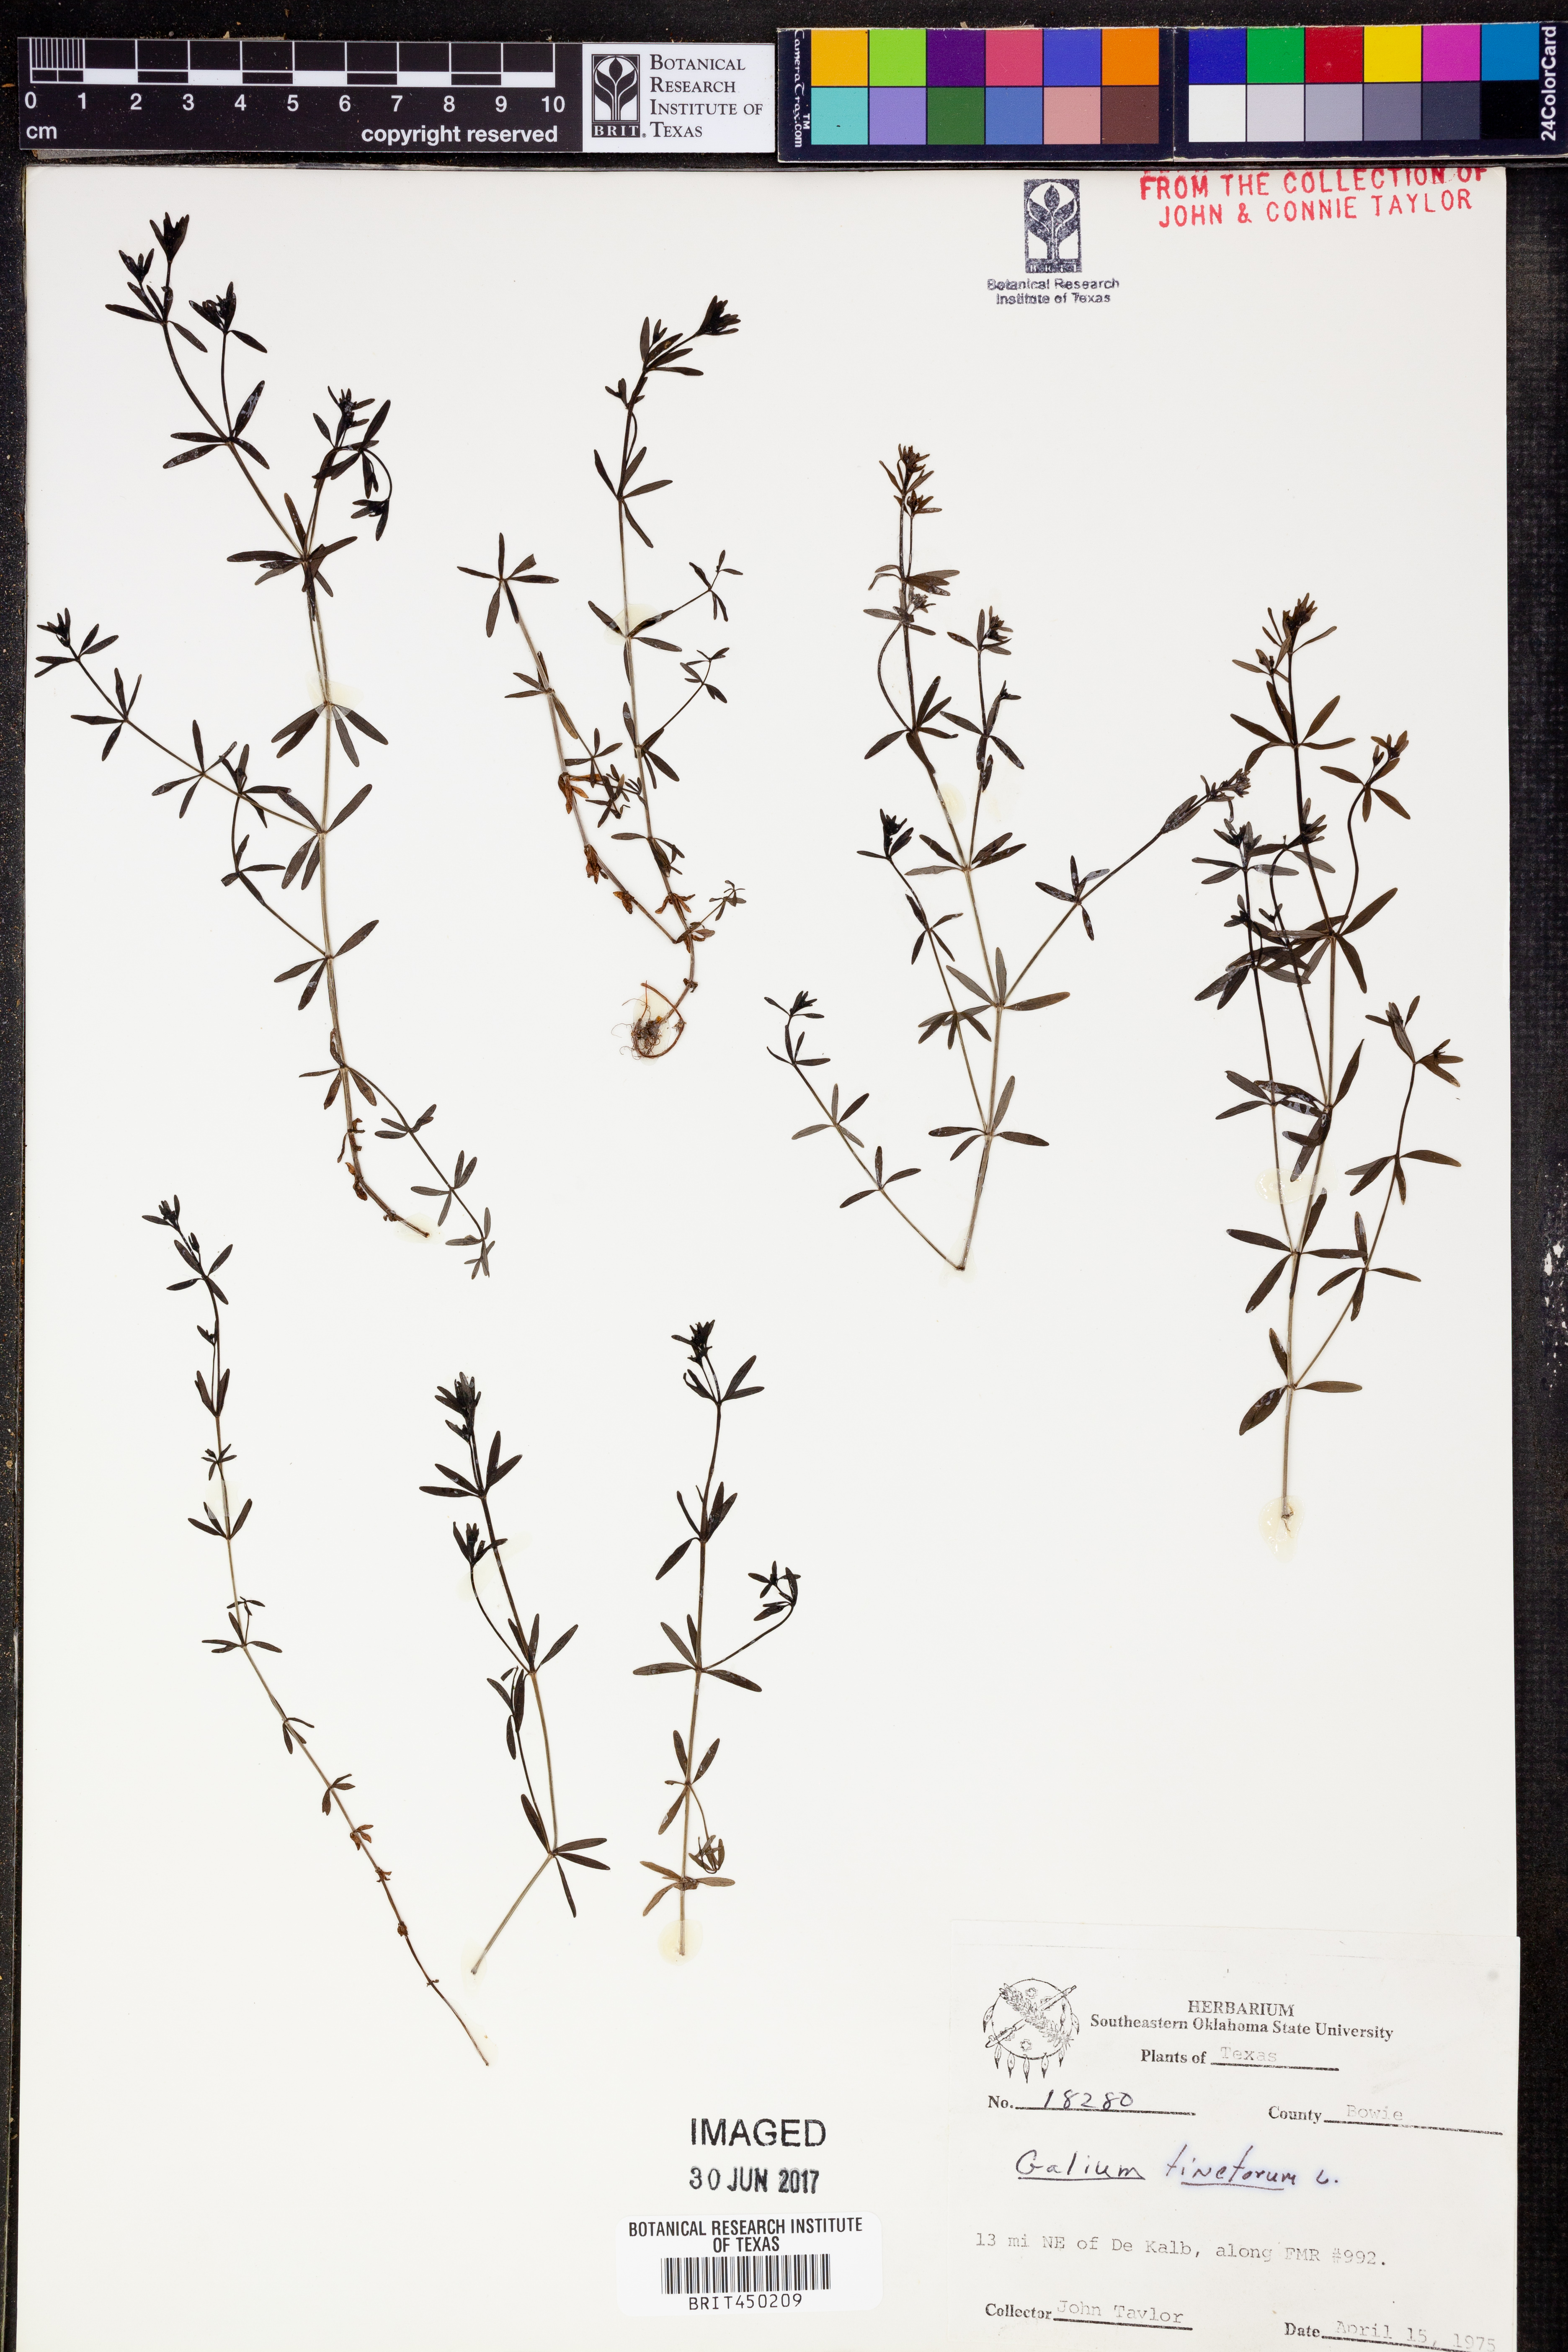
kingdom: Plantae
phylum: Tracheophyta
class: Magnoliopsida
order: Gentianales
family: Rubiaceae
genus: Asperula
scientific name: Asperula tinctoria
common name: Dyer's woodruff
